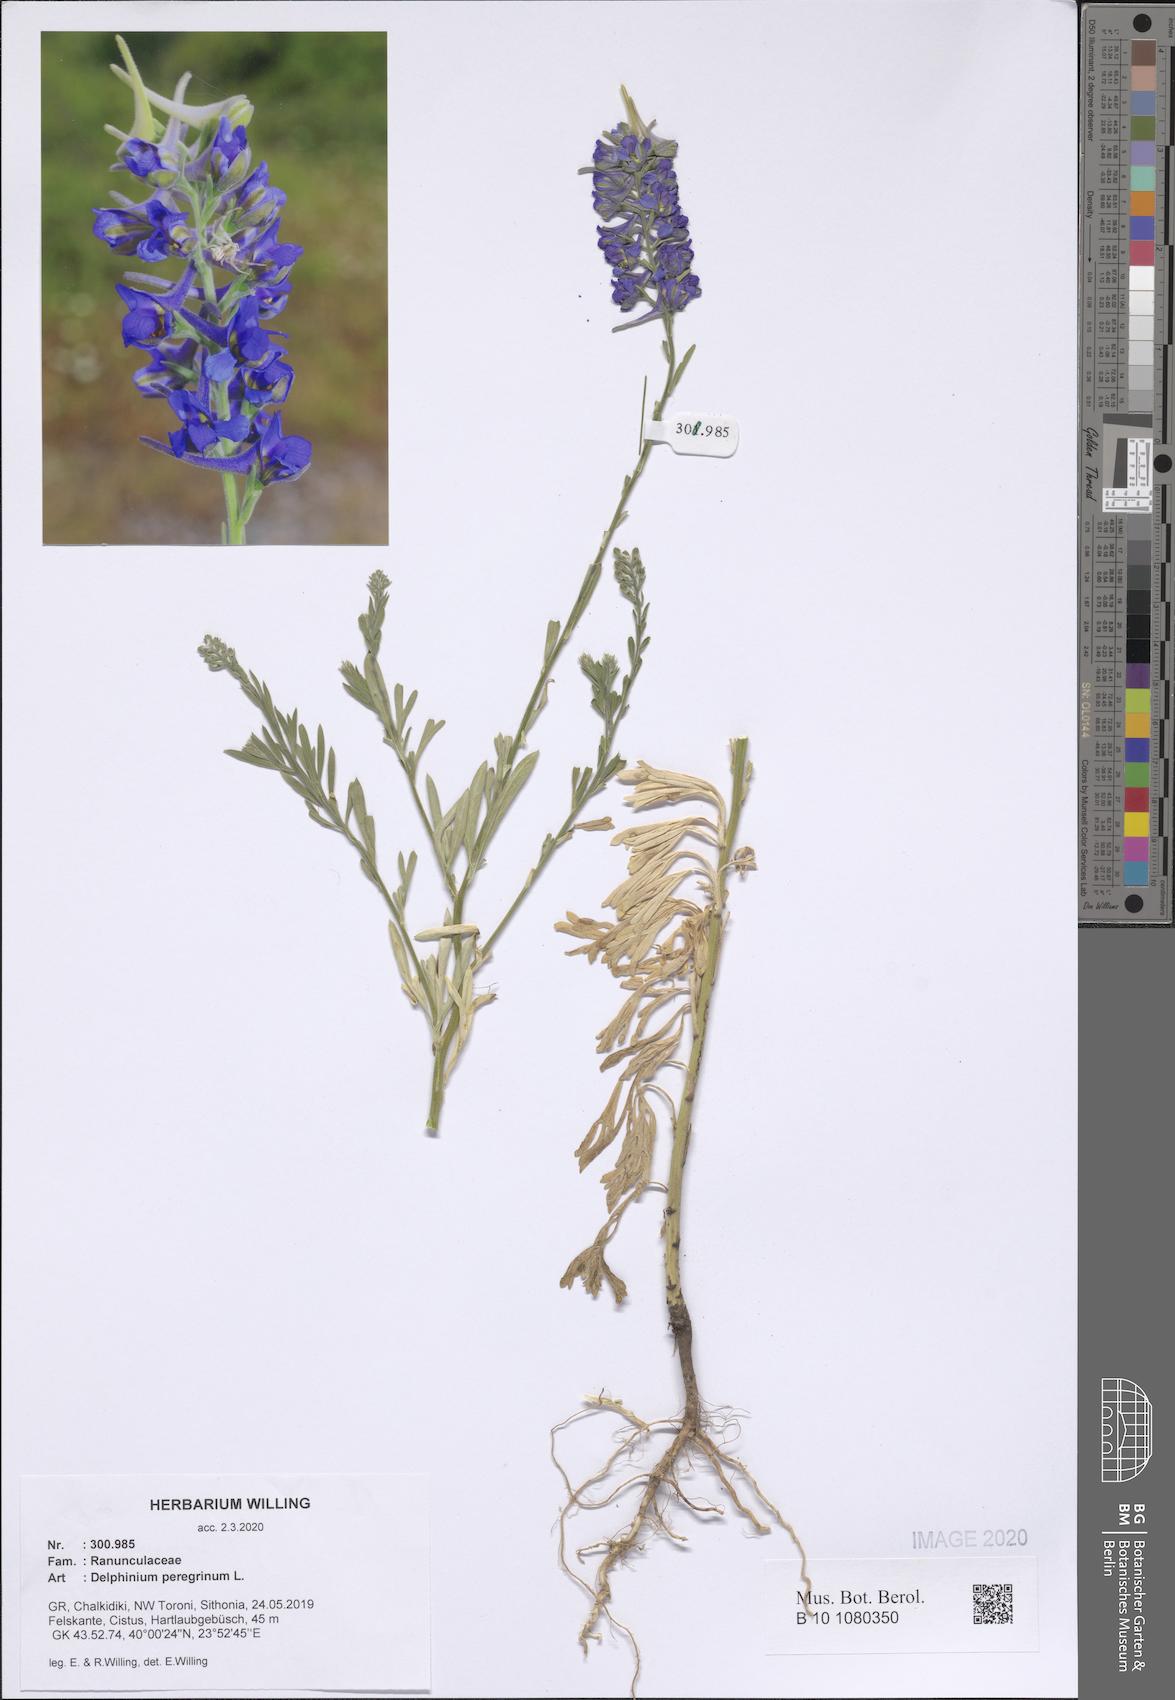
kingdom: Plantae
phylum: Tracheophyta
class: Magnoliopsida
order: Ranunculales
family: Ranunculaceae
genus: Delphinium
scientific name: Delphinium peregrinum
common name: Violet larkspur
